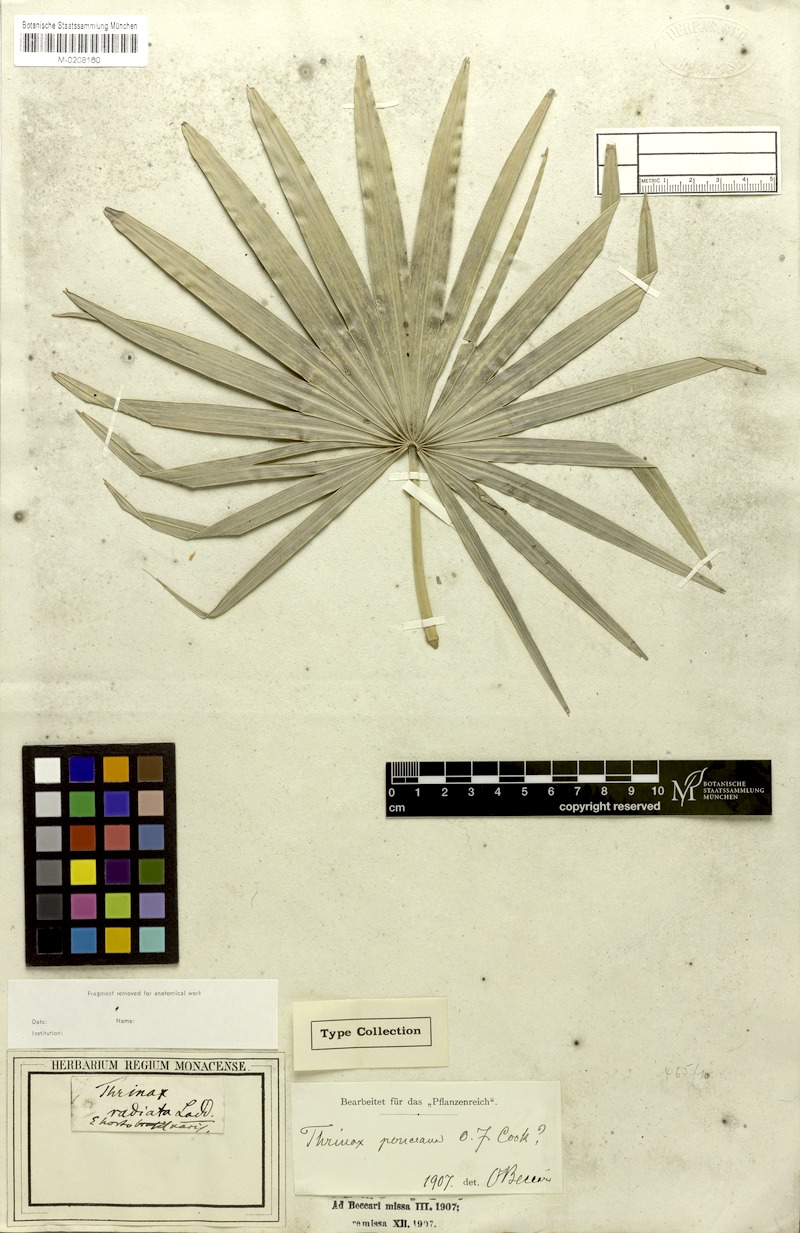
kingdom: Plantae
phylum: Tracheophyta
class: Liliopsida
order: Arecales
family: Arecaceae
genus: Thrinax
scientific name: Thrinax radiata
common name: Florida thatch
